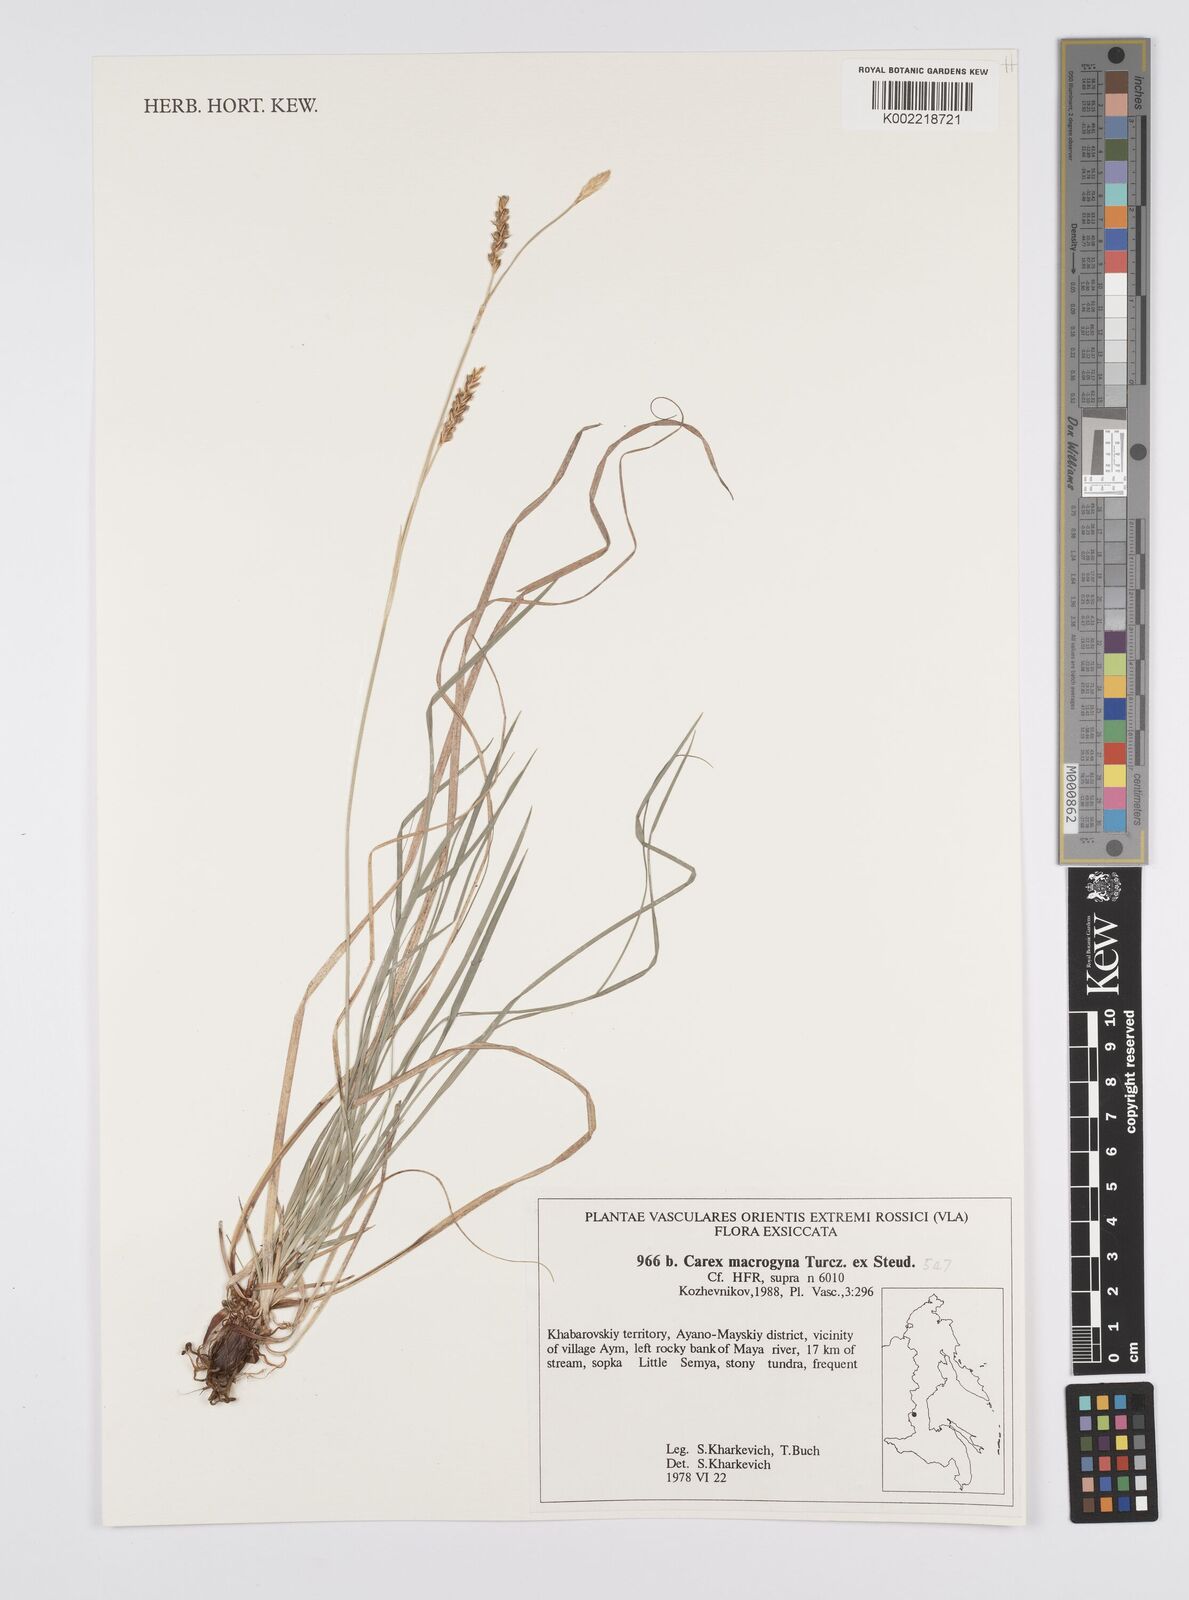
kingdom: Plantae
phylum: Tracheophyta
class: Liliopsida
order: Poales
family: Cyperaceae
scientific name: Cyperaceae
